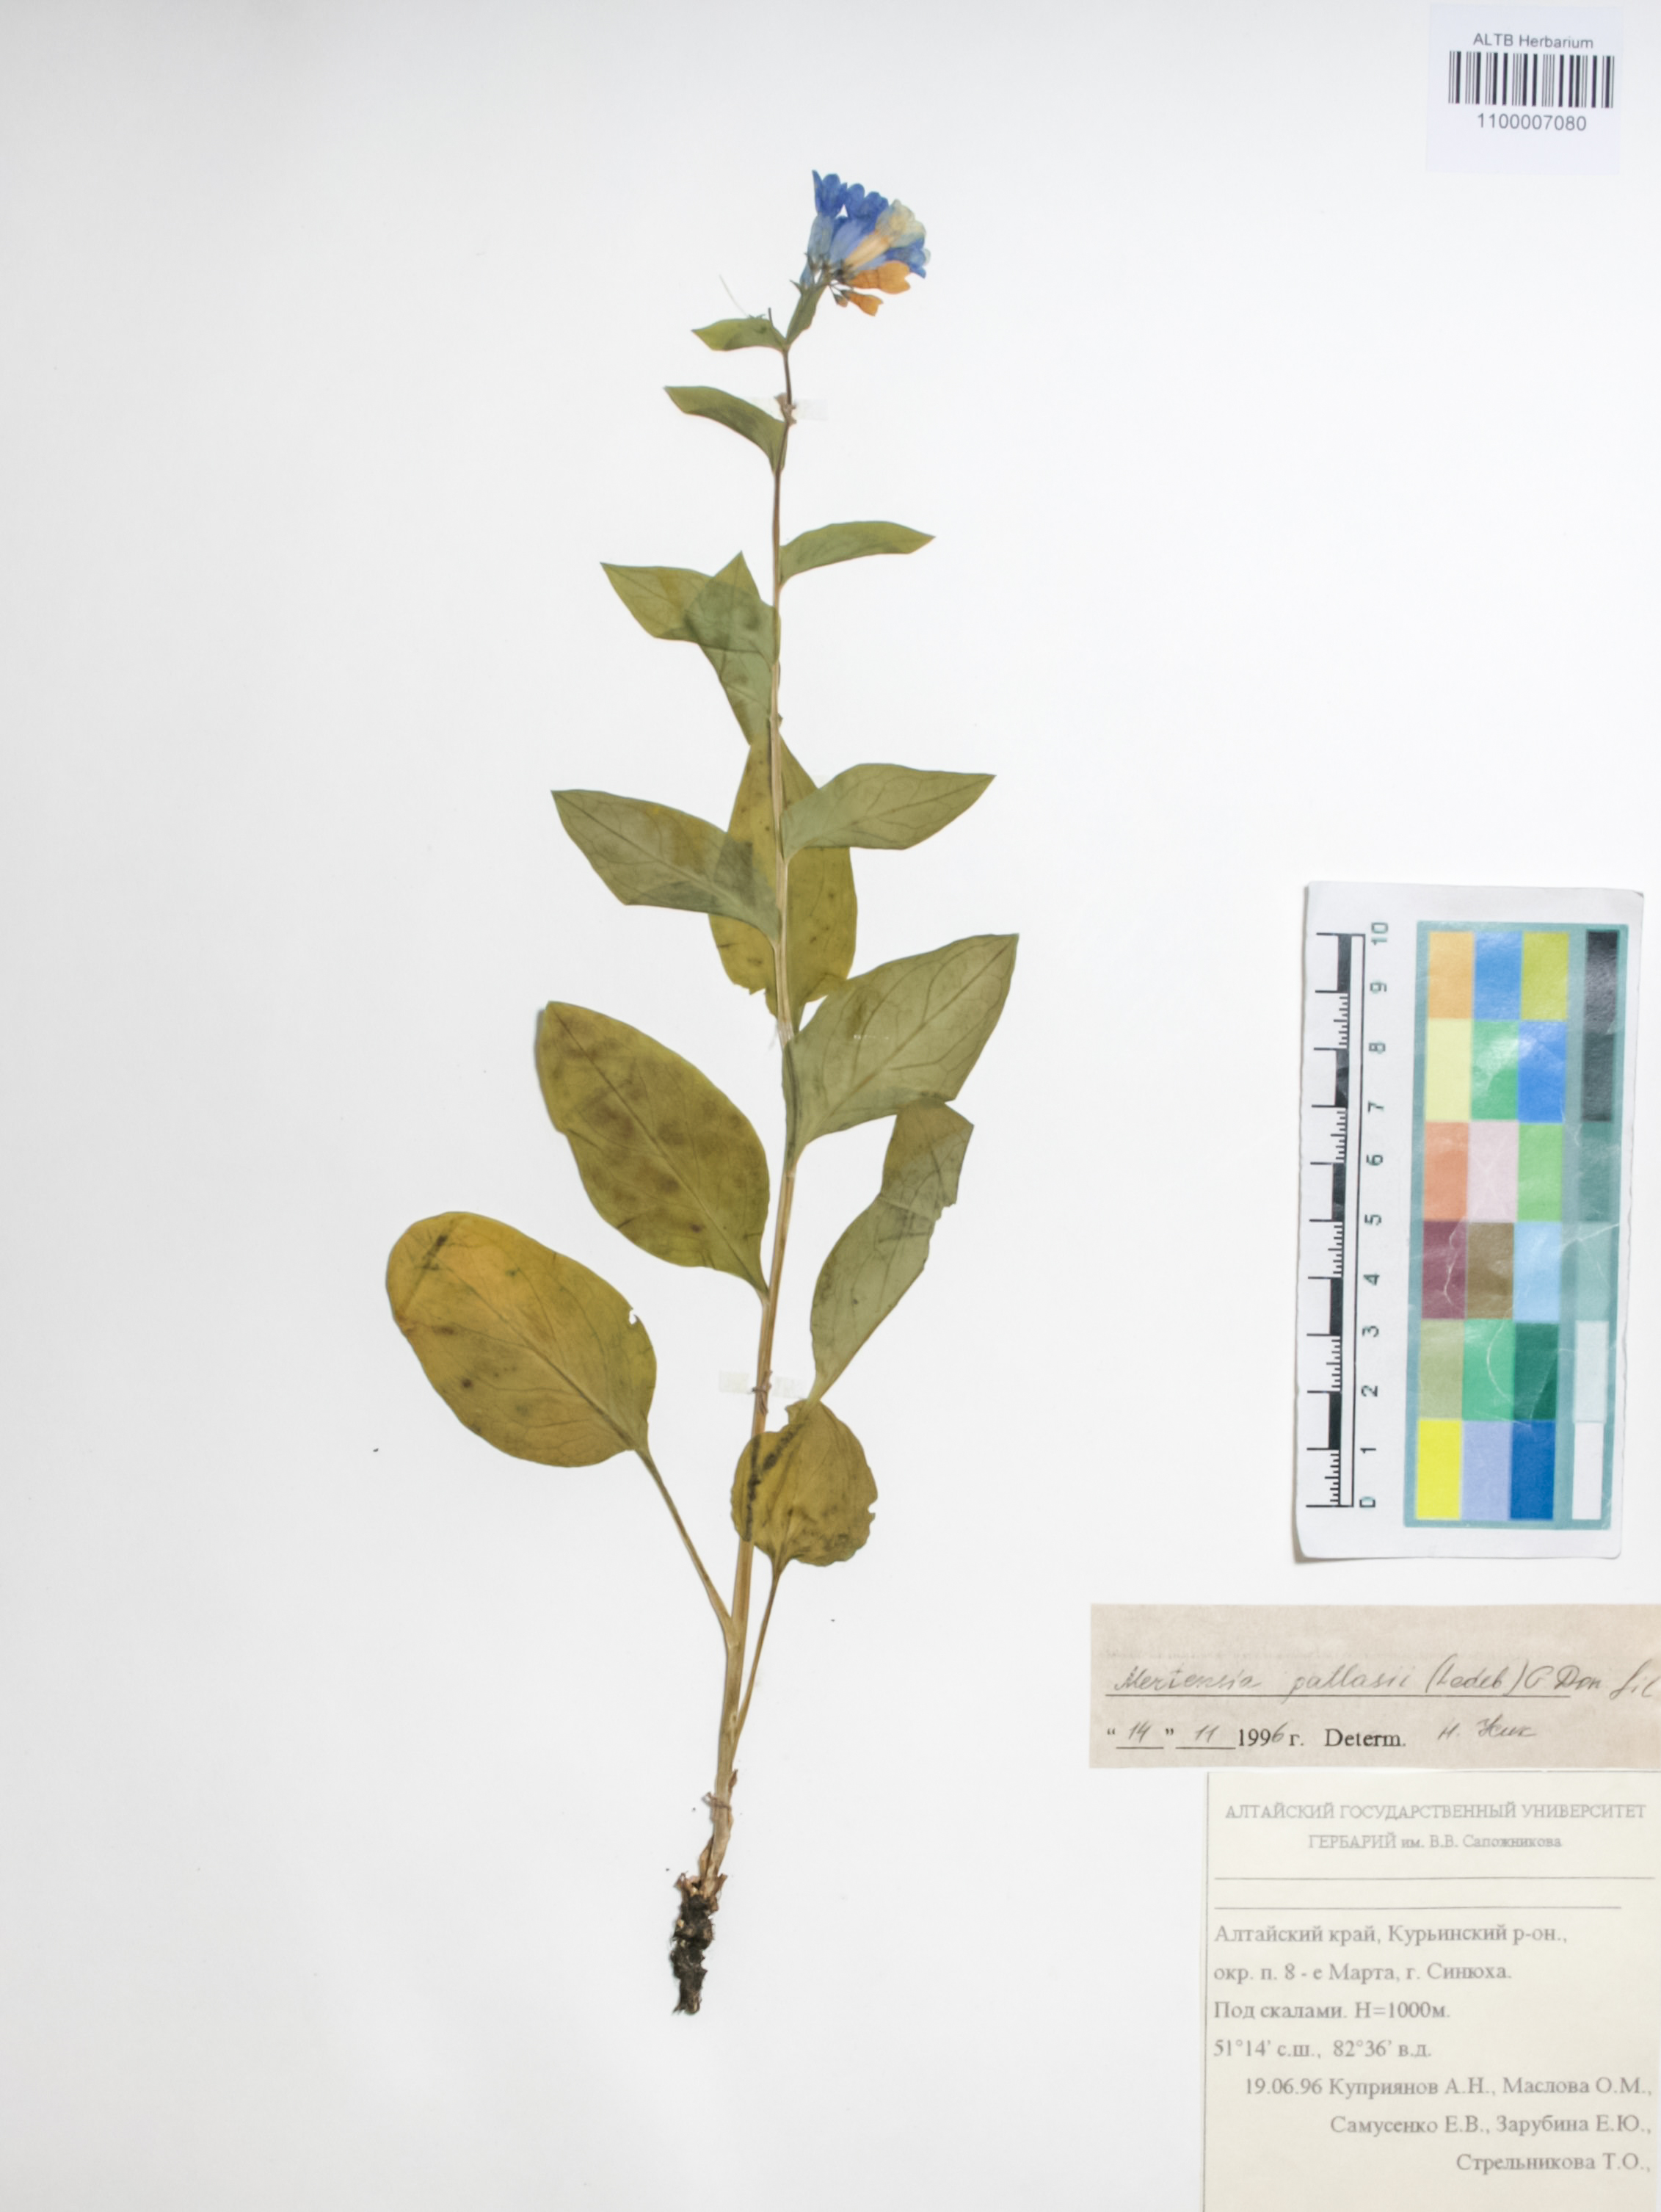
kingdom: Plantae
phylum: Tracheophyta
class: Magnoliopsida
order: Boraginales
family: Boraginaceae
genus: Mertensia
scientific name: Mertensia pallasii
